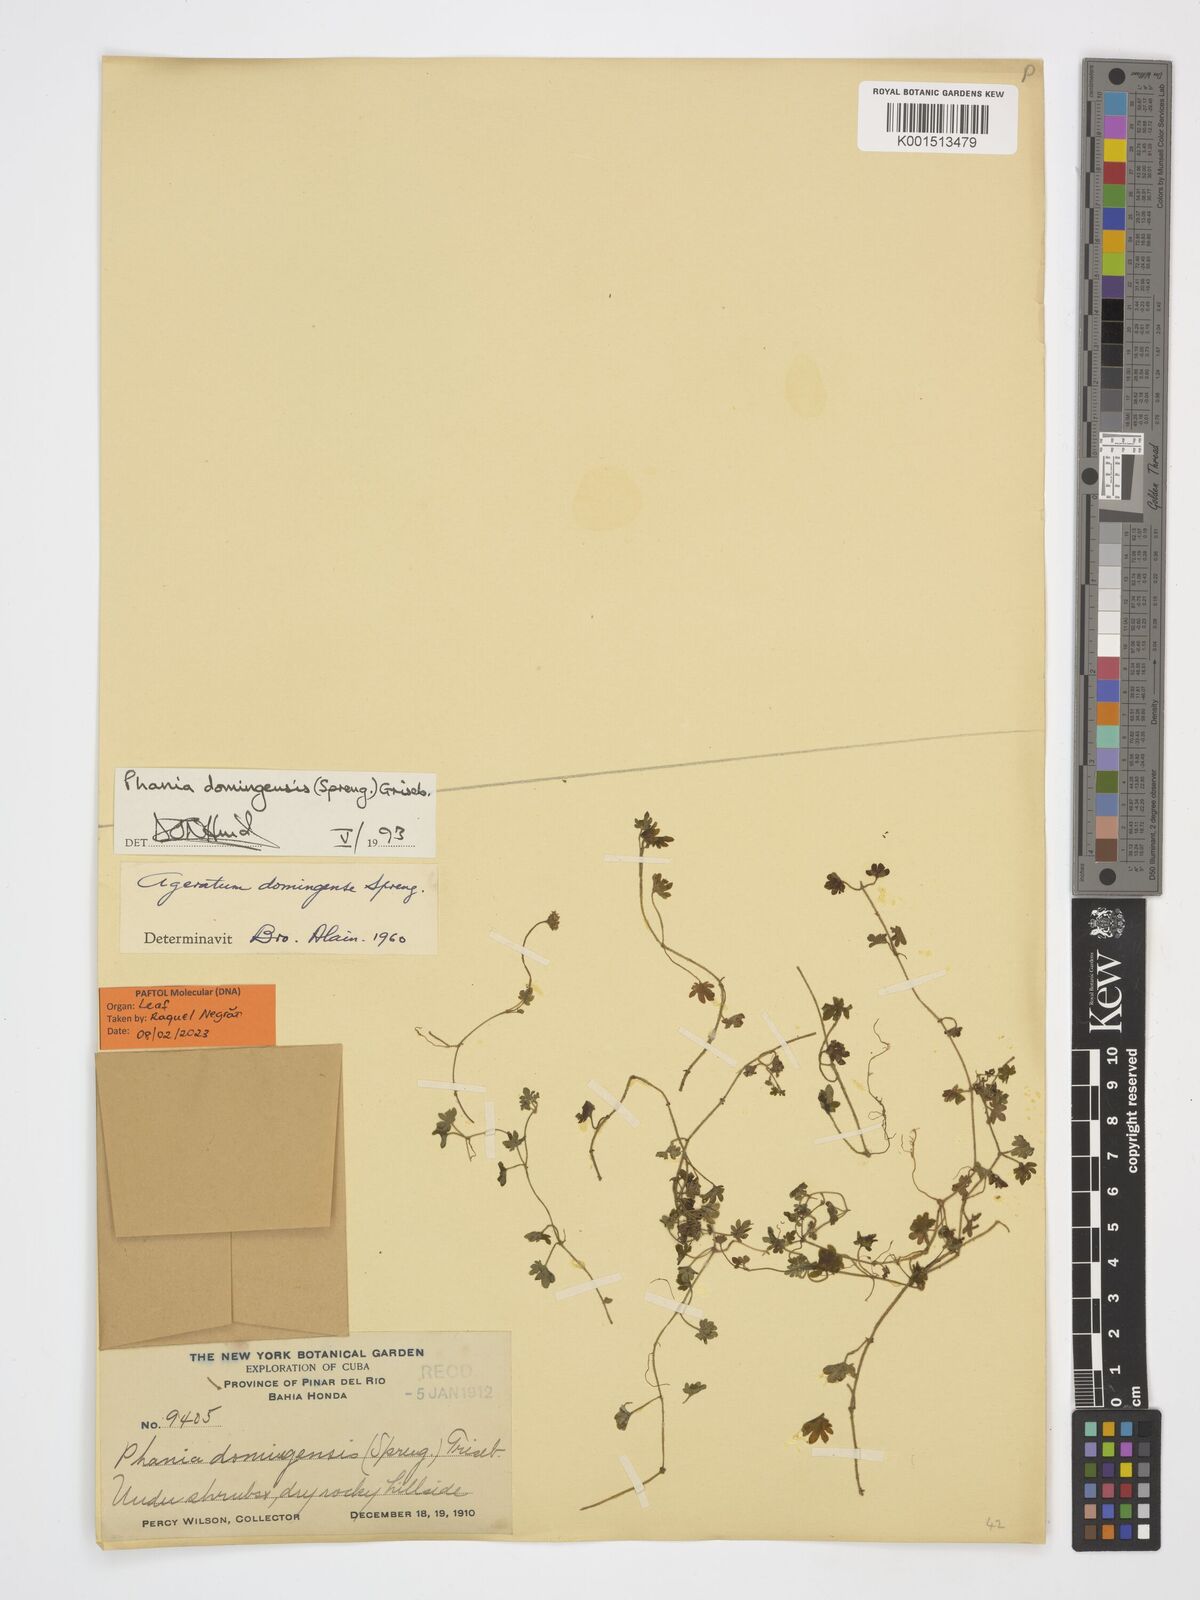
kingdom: Plantae
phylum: Tracheophyta
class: Magnoliopsida
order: Asterales
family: Asteraceae
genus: Phania
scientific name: Phania domingensis
